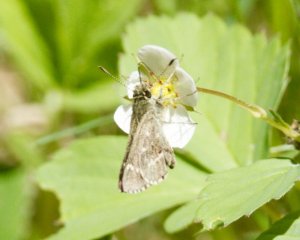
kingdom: Animalia
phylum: Arthropoda
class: Insecta
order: Lepidoptera
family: Hesperiidae
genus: Mastor
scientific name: Mastor hegon
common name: Pepper and Salt Skipper
